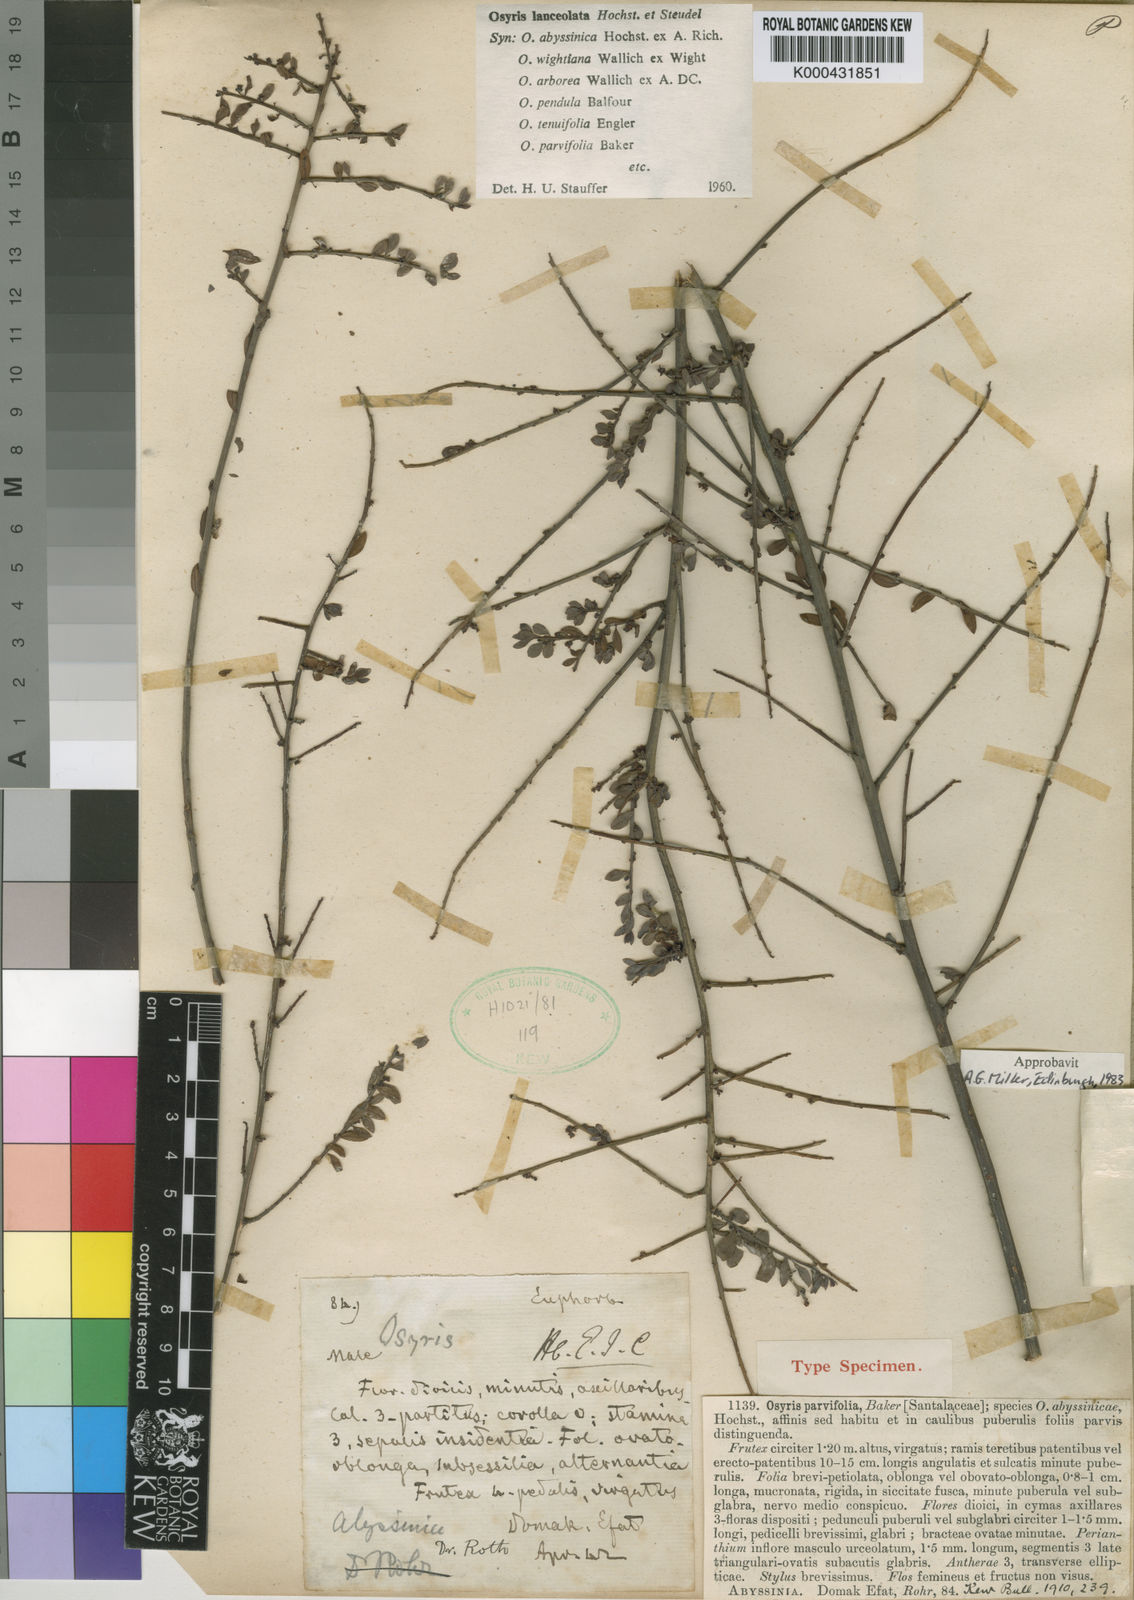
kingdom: Plantae
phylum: Tracheophyta
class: Magnoliopsida
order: Santalales
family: Santalaceae
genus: Osyris
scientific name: Osyris lanceolata
